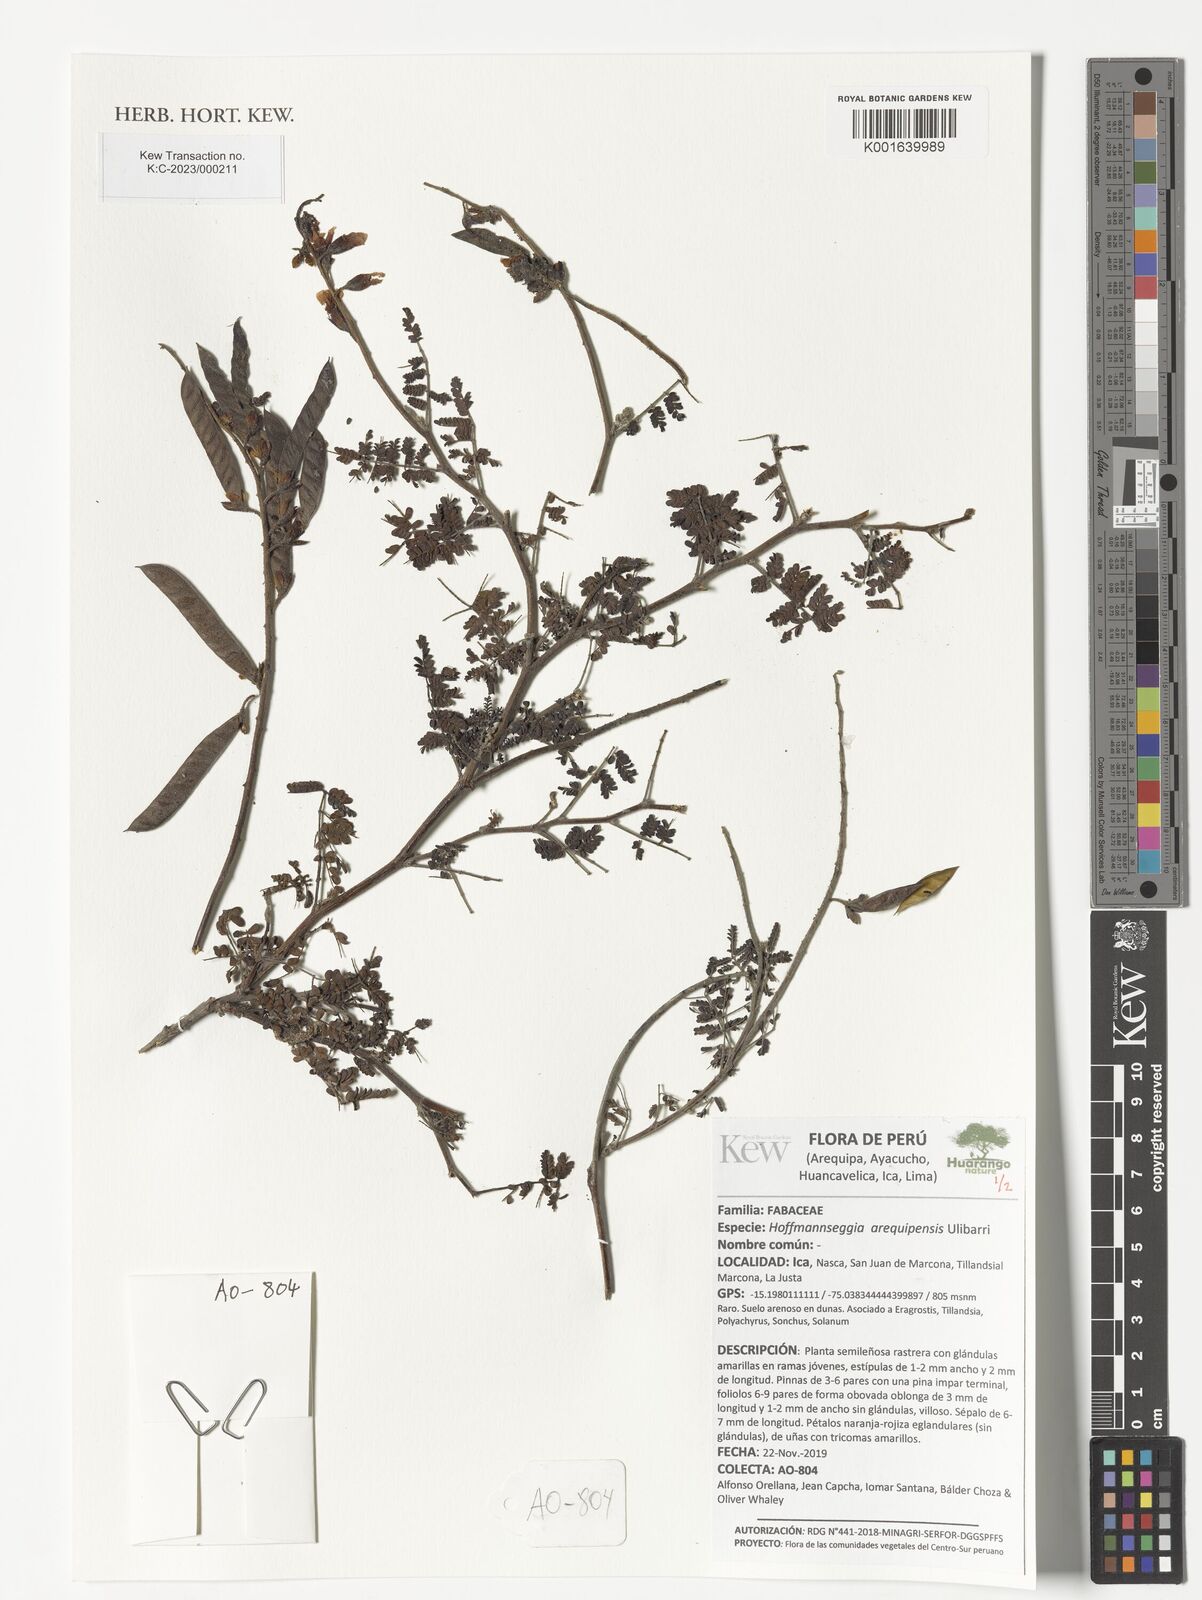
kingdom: Plantae
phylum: Tracheophyta
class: Magnoliopsida
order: Fabales
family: Fabaceae
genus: Hoffmannseggia
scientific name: Hoffmannseggia arequipensis
